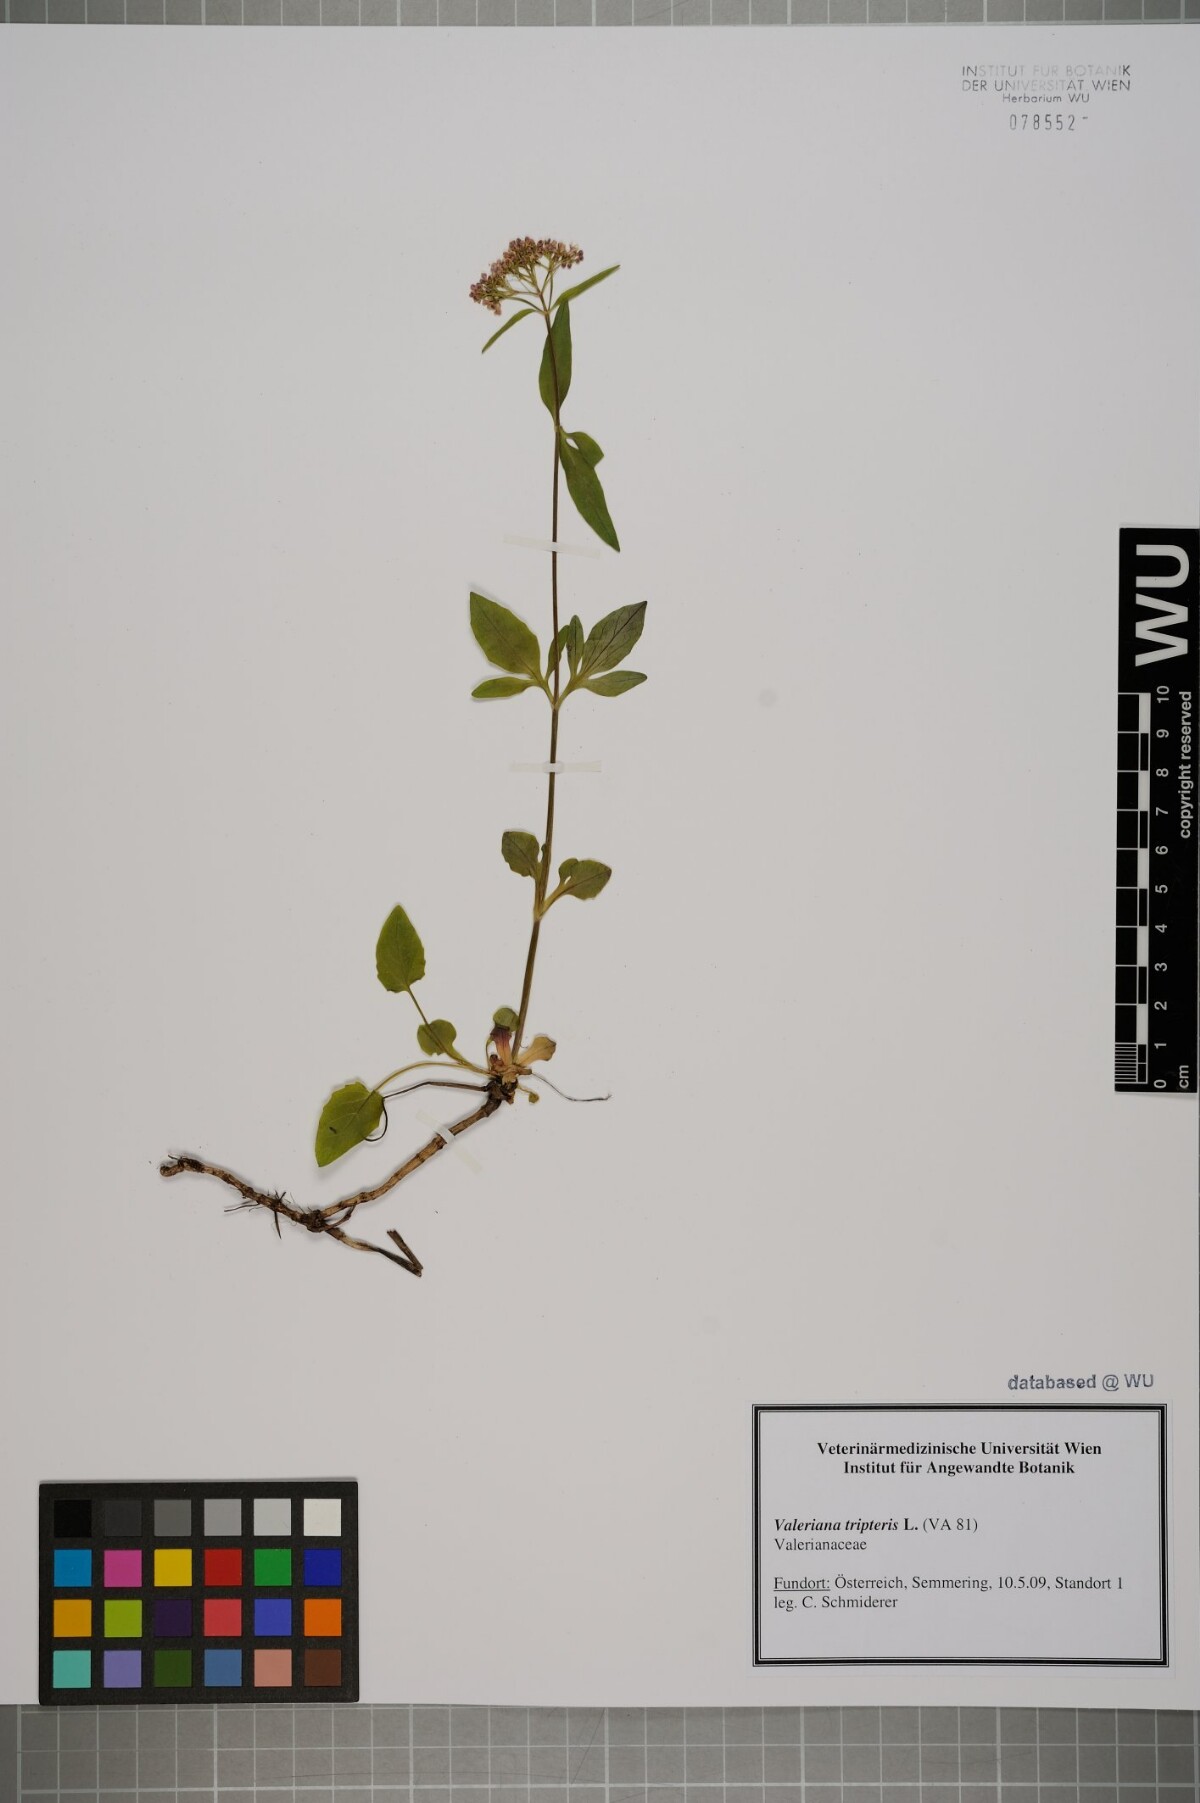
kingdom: Plantae
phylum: Tracheophyta
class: Magnoliopsida
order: Dipsacales
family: Caprifoliaceae
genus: Valeriana
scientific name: Valeriana tripteris
